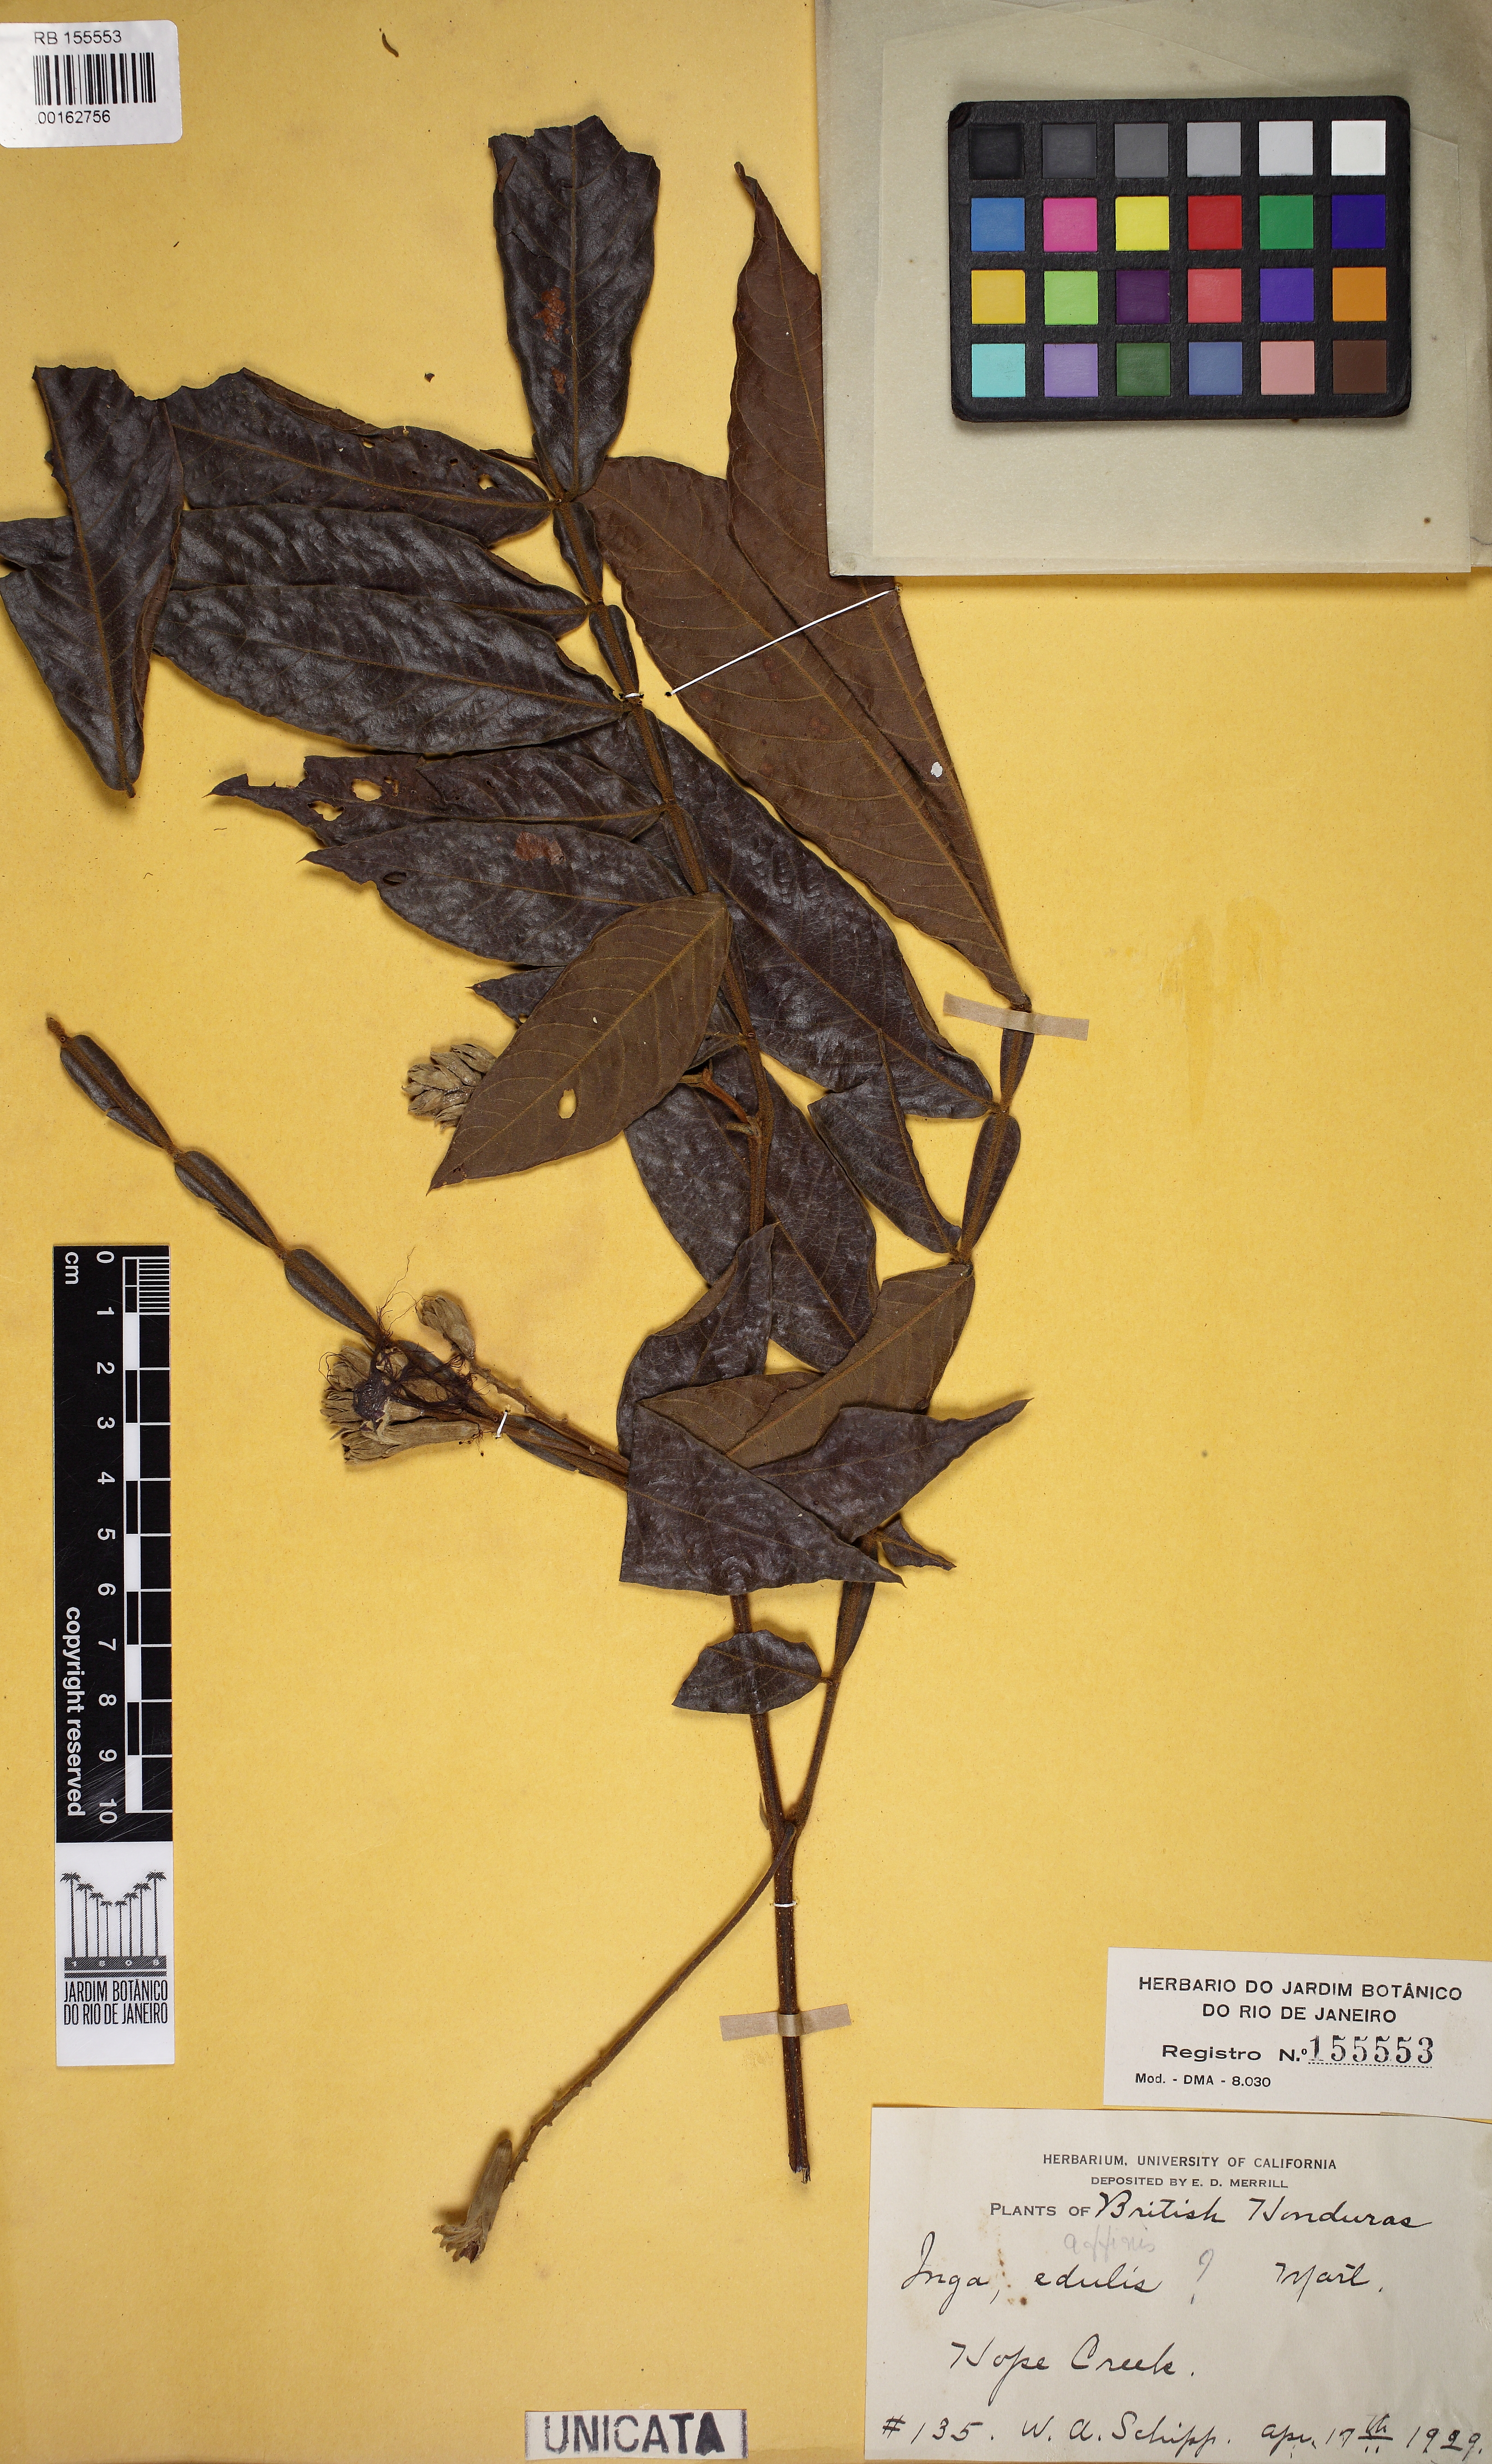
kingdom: Plantae
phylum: Tracheophyta
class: Magnoliopsida
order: Fabales
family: Fabaceae
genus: Inga
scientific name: Inga affinis
